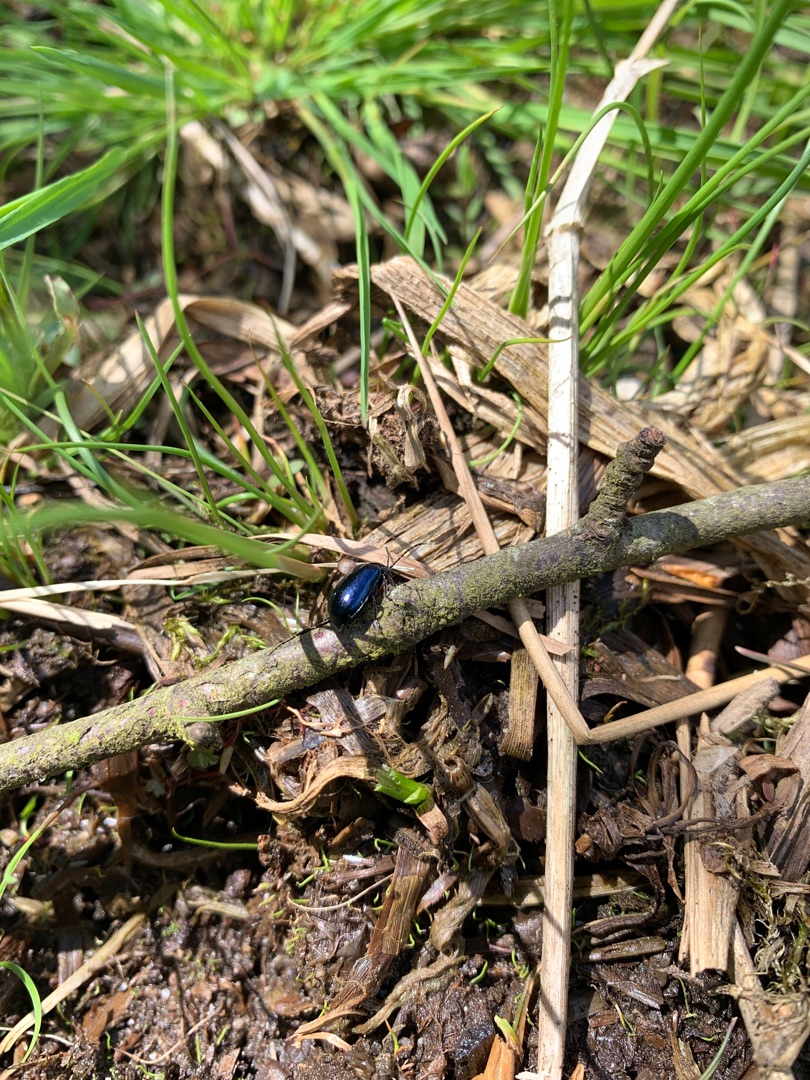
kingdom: Animalia
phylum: Arthropoda
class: Insecta
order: Coleoptera
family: Chrysomelidae
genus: Agelastica
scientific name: Agelastica alni
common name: Ellebladbille
